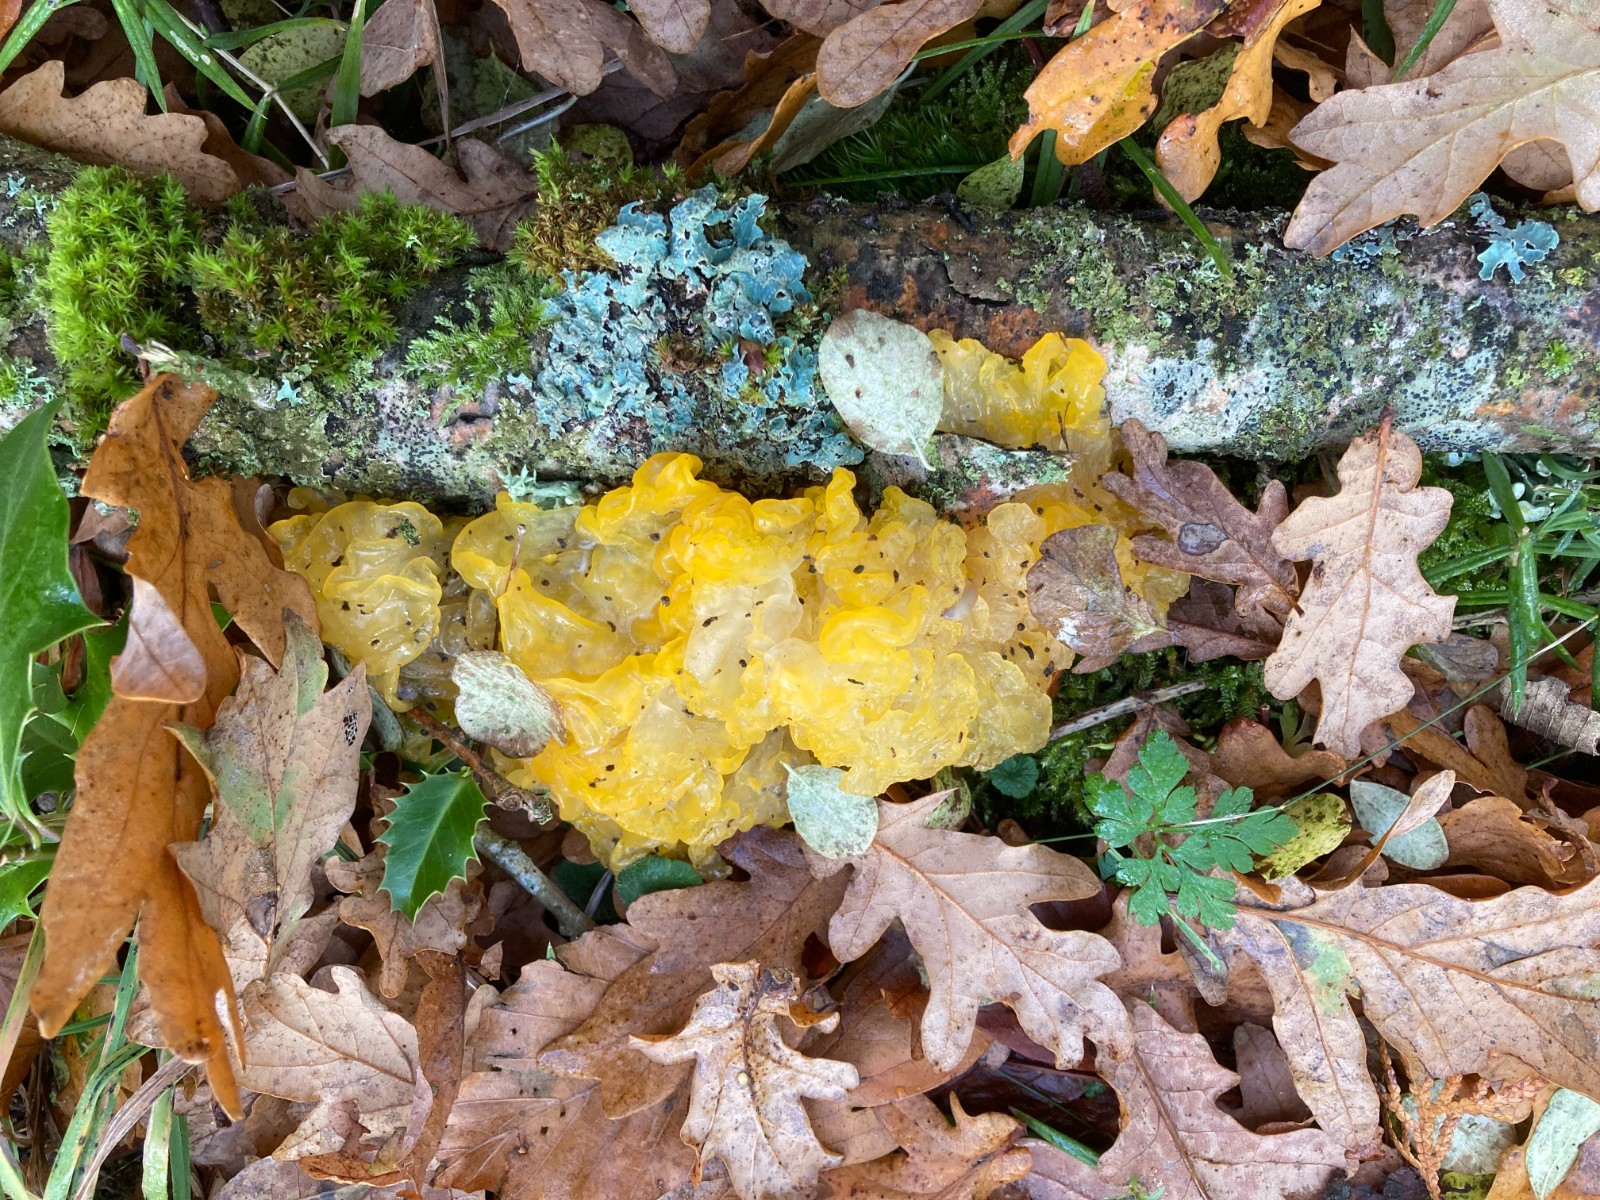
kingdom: Fungi
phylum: Basidiomycota
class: Tremellomycetes
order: Tremellales
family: Tremellaceae
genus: Tremella
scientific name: Tremella mesenterica
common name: gul bævresvamp
